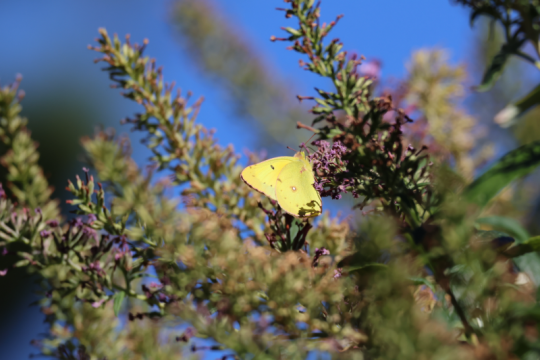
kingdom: Animalia
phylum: Arthropoda
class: Insecta
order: Lepidoptera
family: Pieridae
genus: Colias
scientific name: Colias eurytheme
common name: Orange Sulphur
